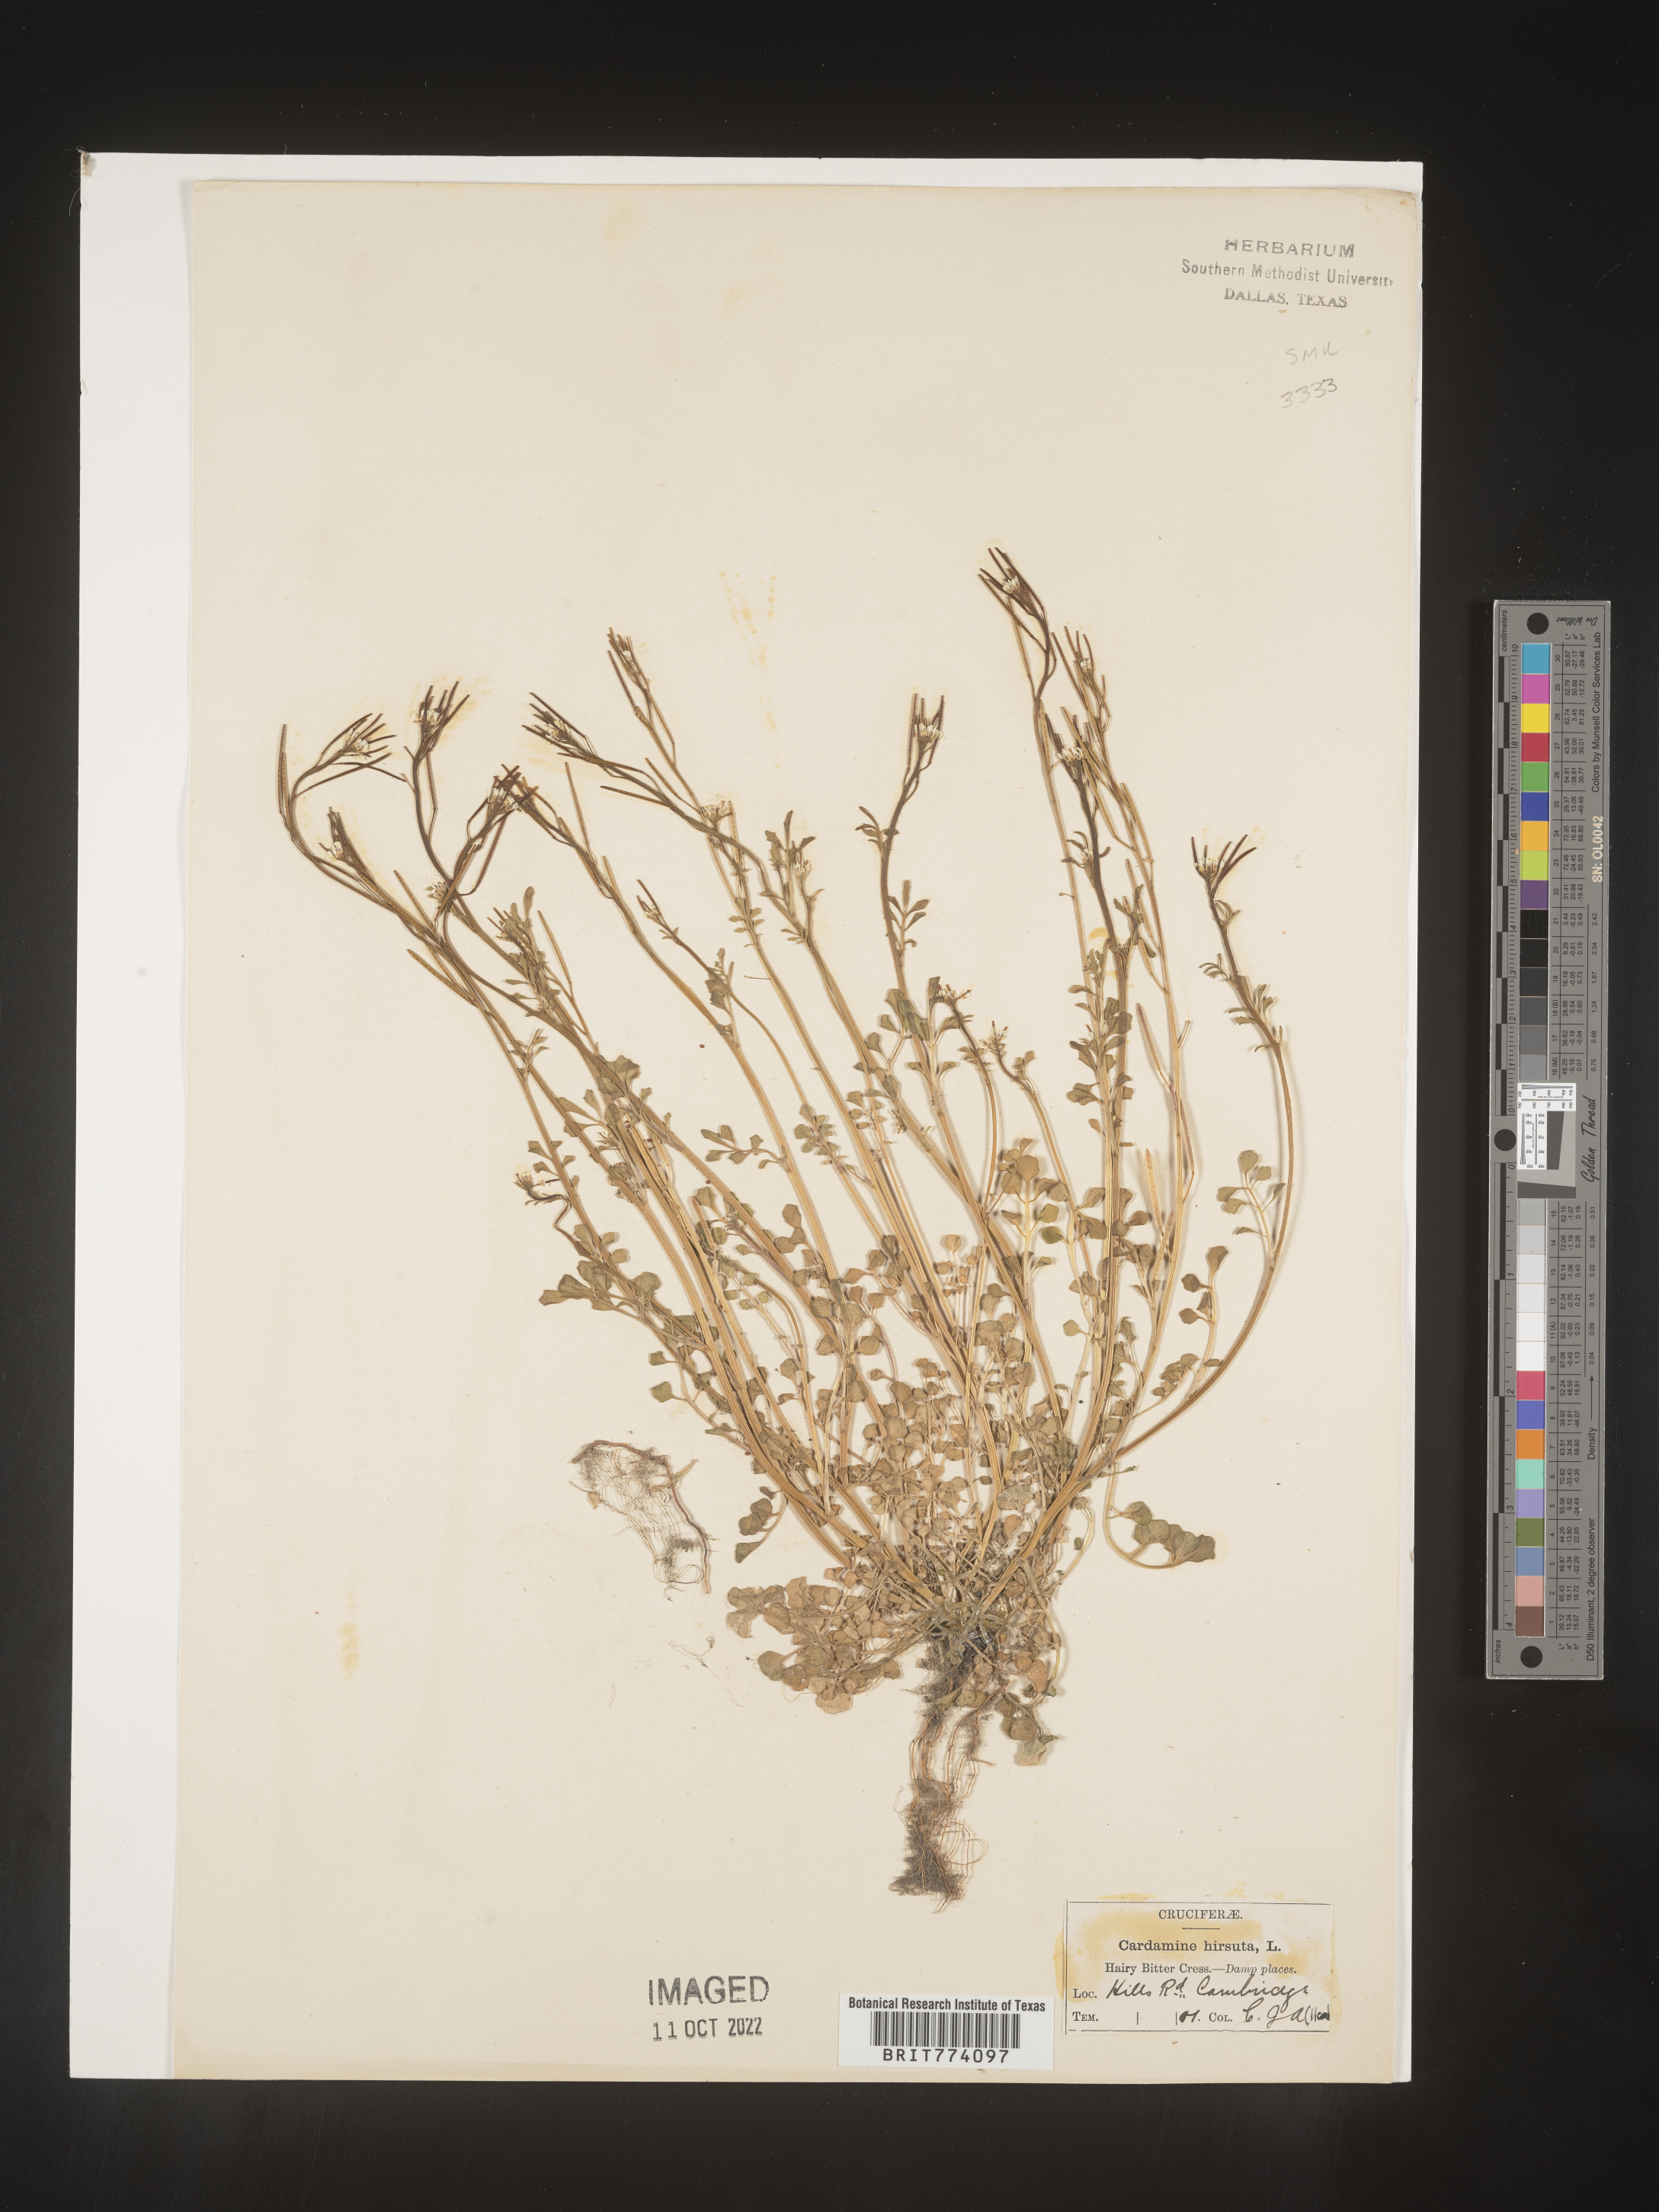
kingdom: Plantae
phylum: Tracheophyta
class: Magnoliopsida
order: Brassicales
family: Brassicaceae
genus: Cardamine
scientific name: Cardamine hirsuta
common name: Hairy bittercress
